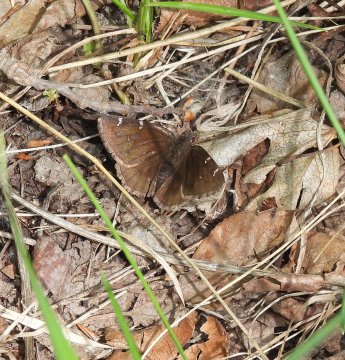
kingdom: Animalia
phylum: Arthropoda
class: Insecta
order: Lepidoptera
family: Hesperiidae
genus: Autochton
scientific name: Autochton
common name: Northern Cloudywing
